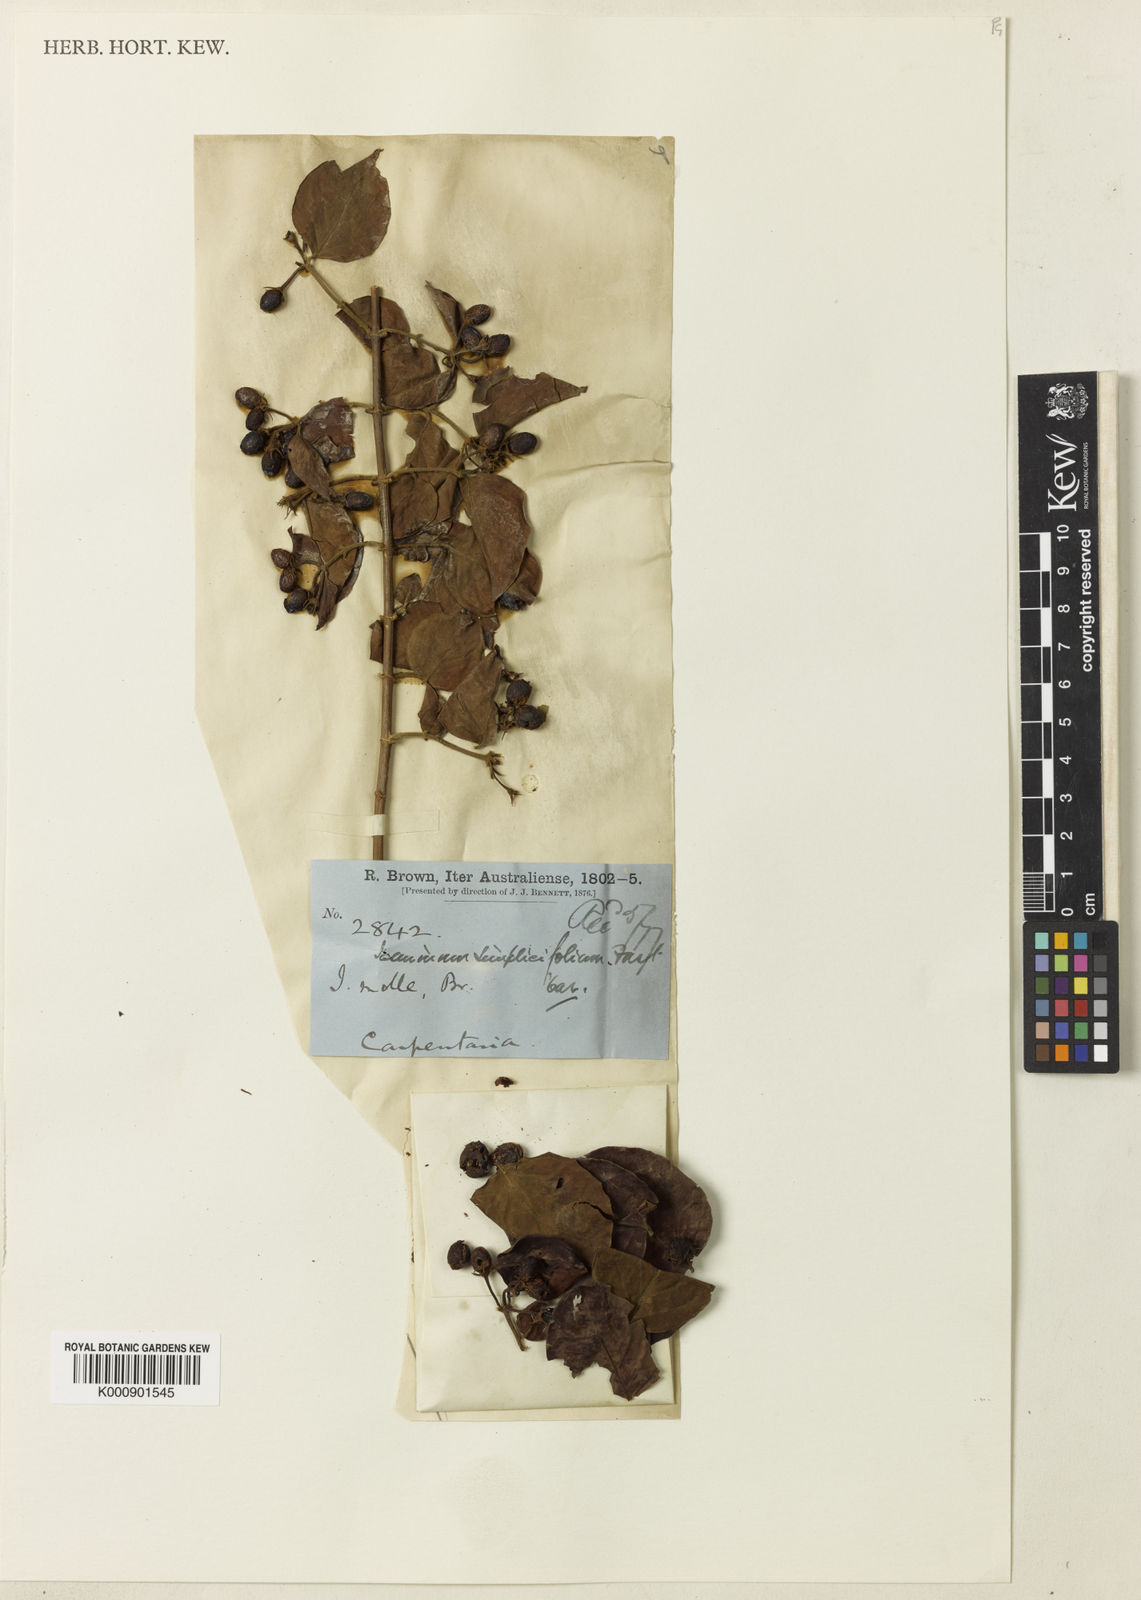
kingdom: Plantae
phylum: Tracheophyta
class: Magnoliopsida
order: Lamiales
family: Oleaceae
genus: Jasminum
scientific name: Jasminum elongatum
